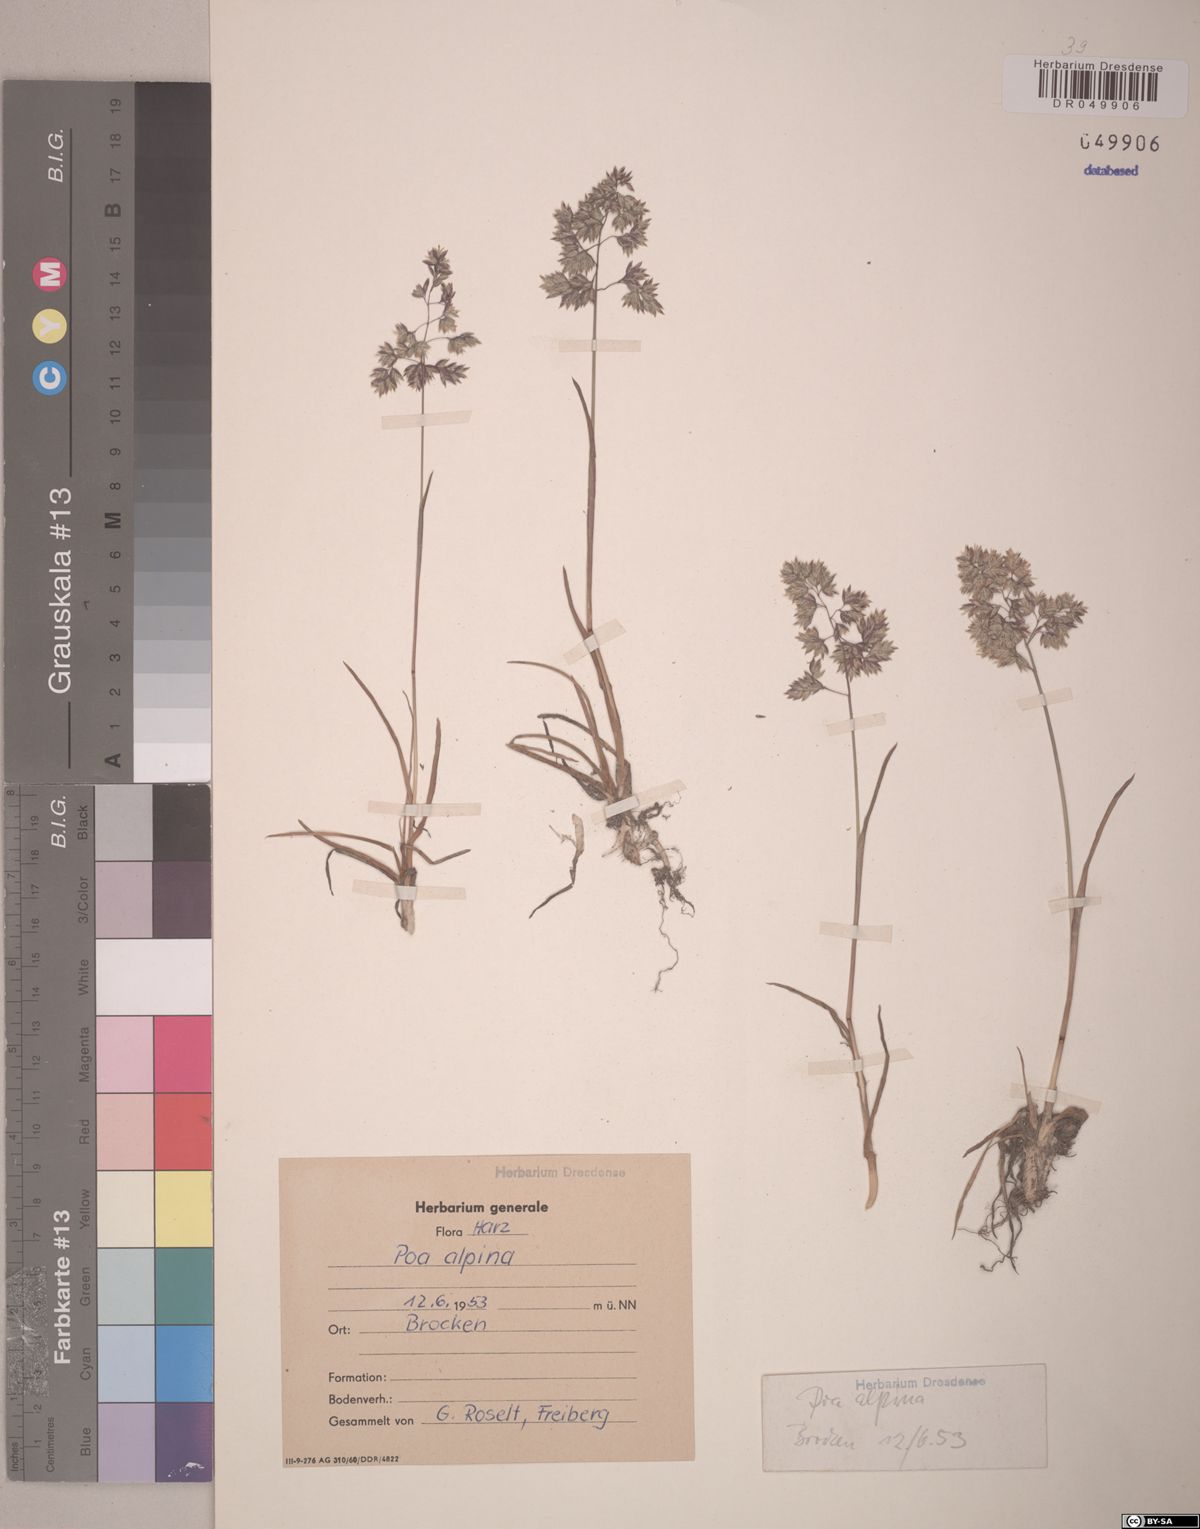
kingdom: Plantae
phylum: Tracheophyta
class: Liliopsida
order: Poales
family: Poaceae
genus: Poa
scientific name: Poa alpina
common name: Alpine bluegrass
